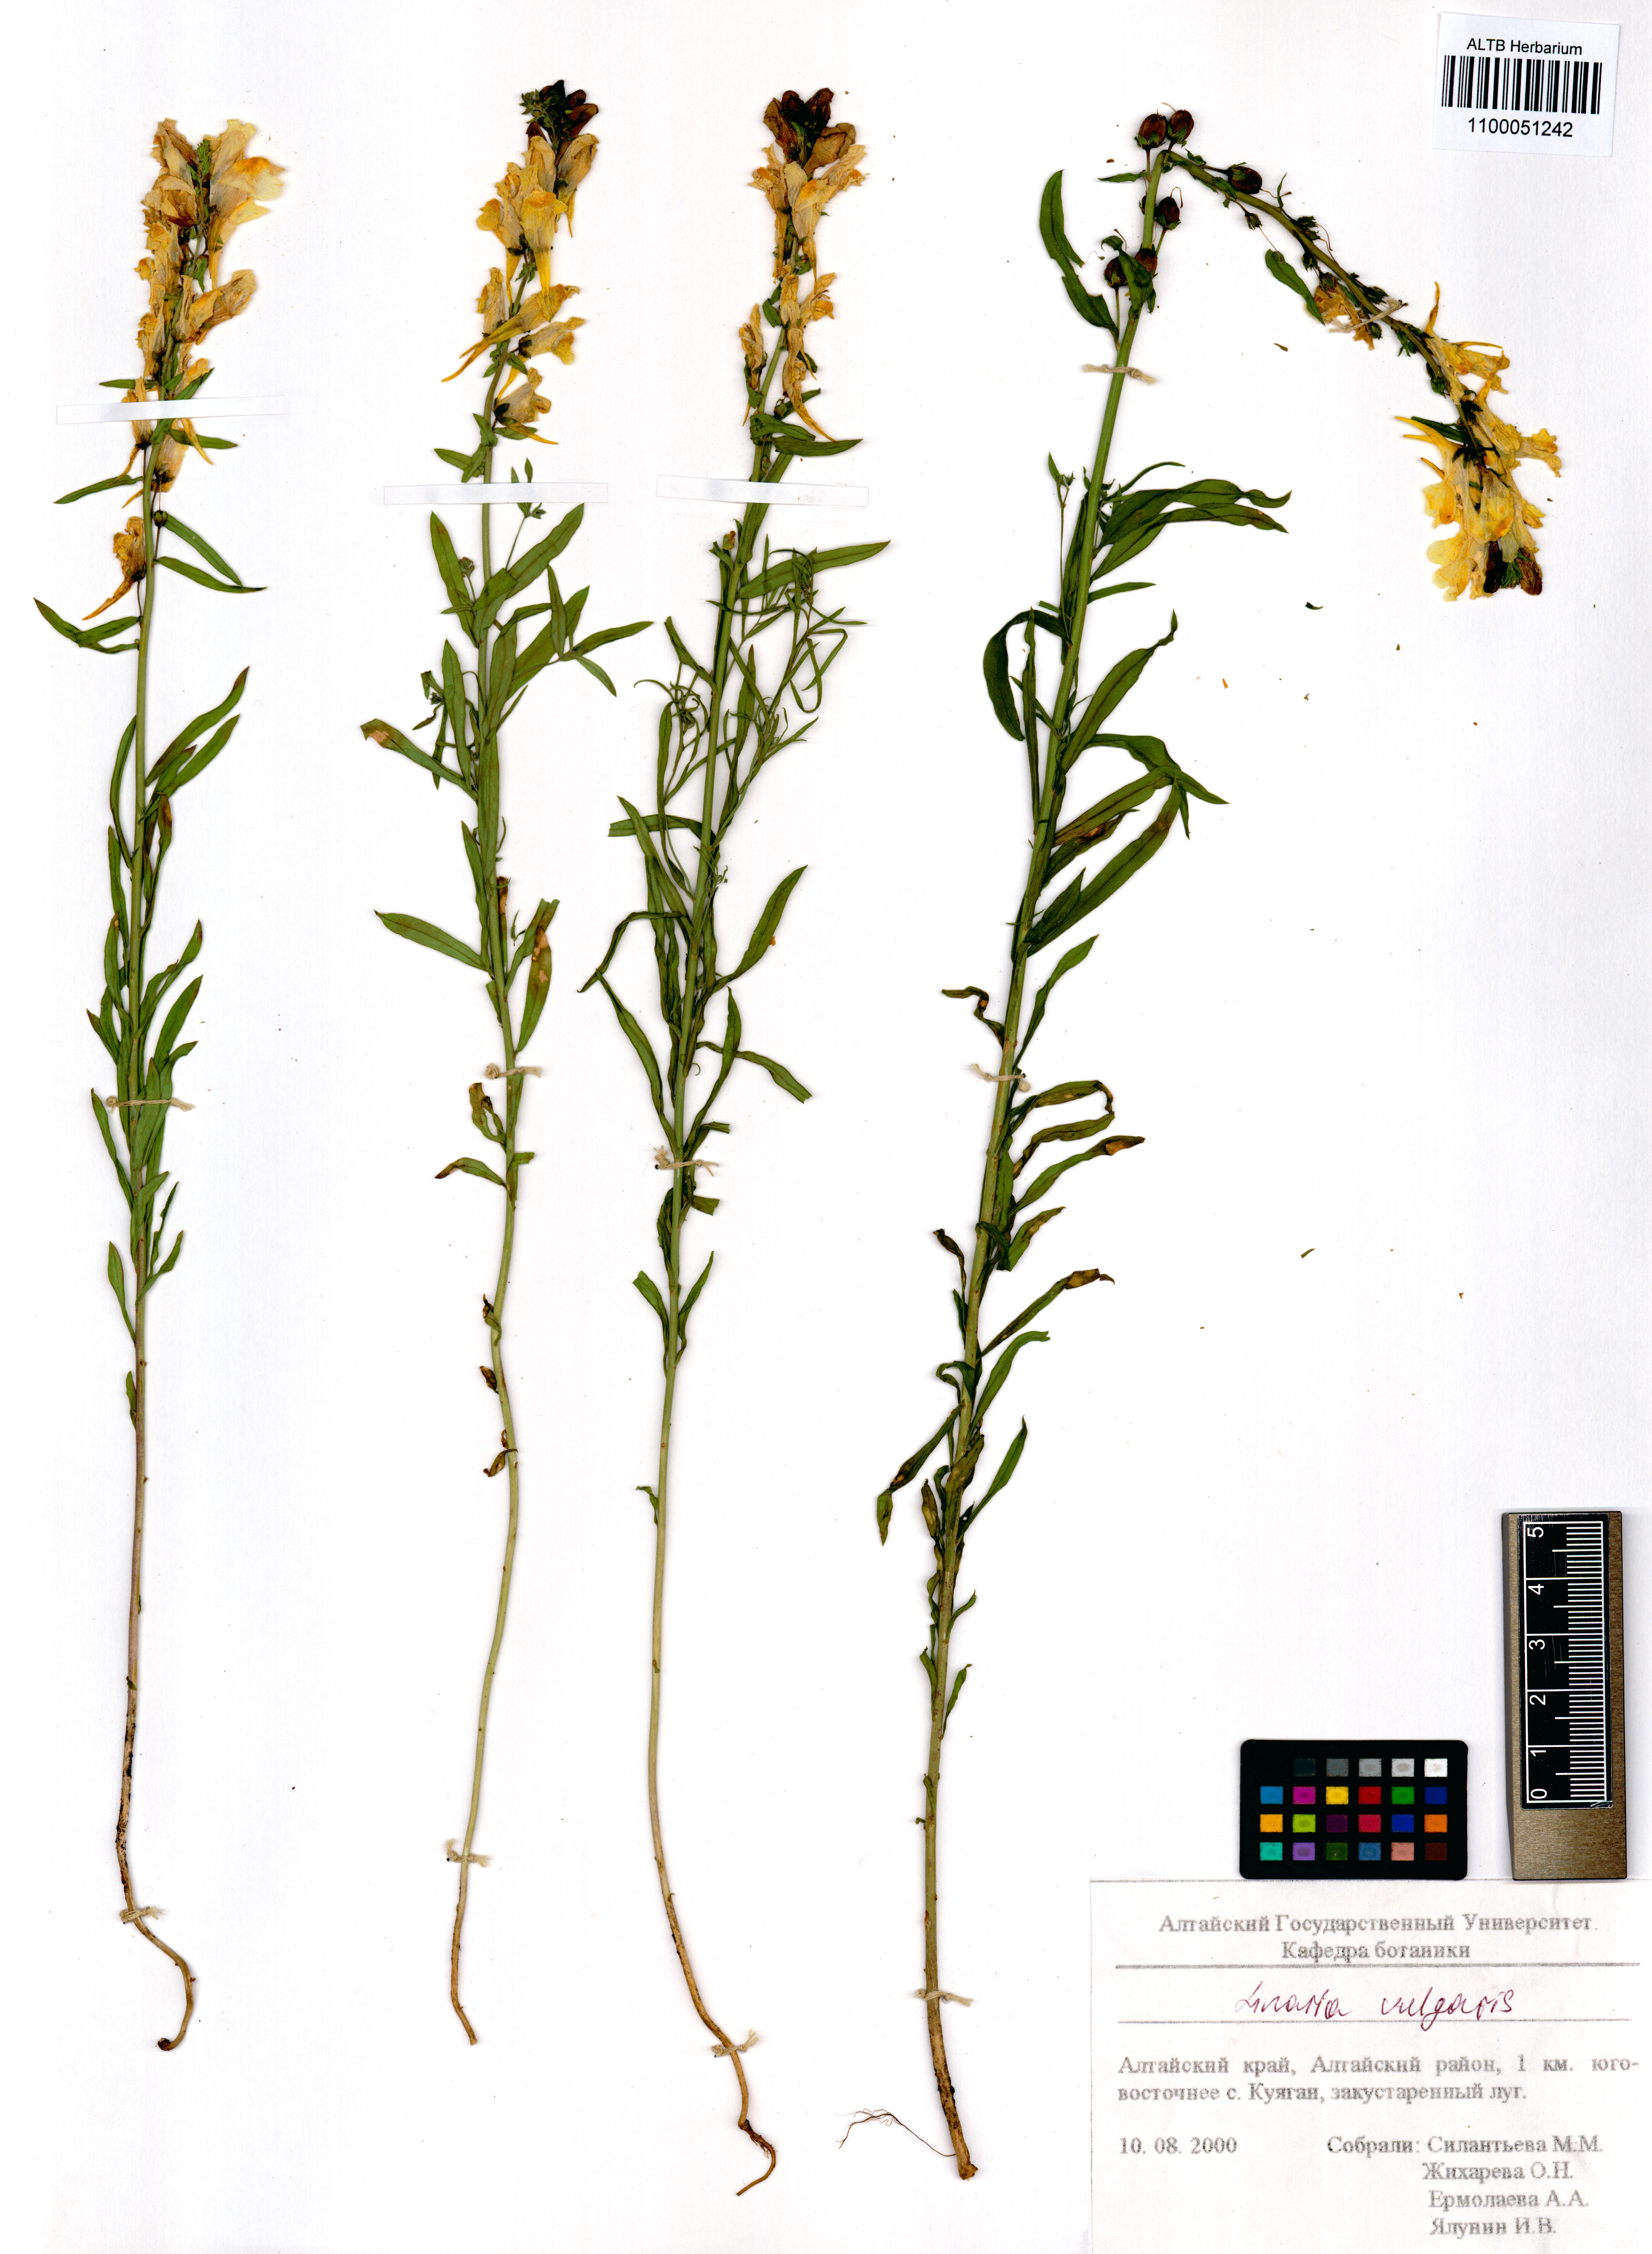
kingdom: Plantae
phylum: Tracheophyta
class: Magnoliopsida
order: Lamiales
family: Plantaginaceae
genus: Linaria
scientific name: Linaria vulgaris
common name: Butter and eggs
